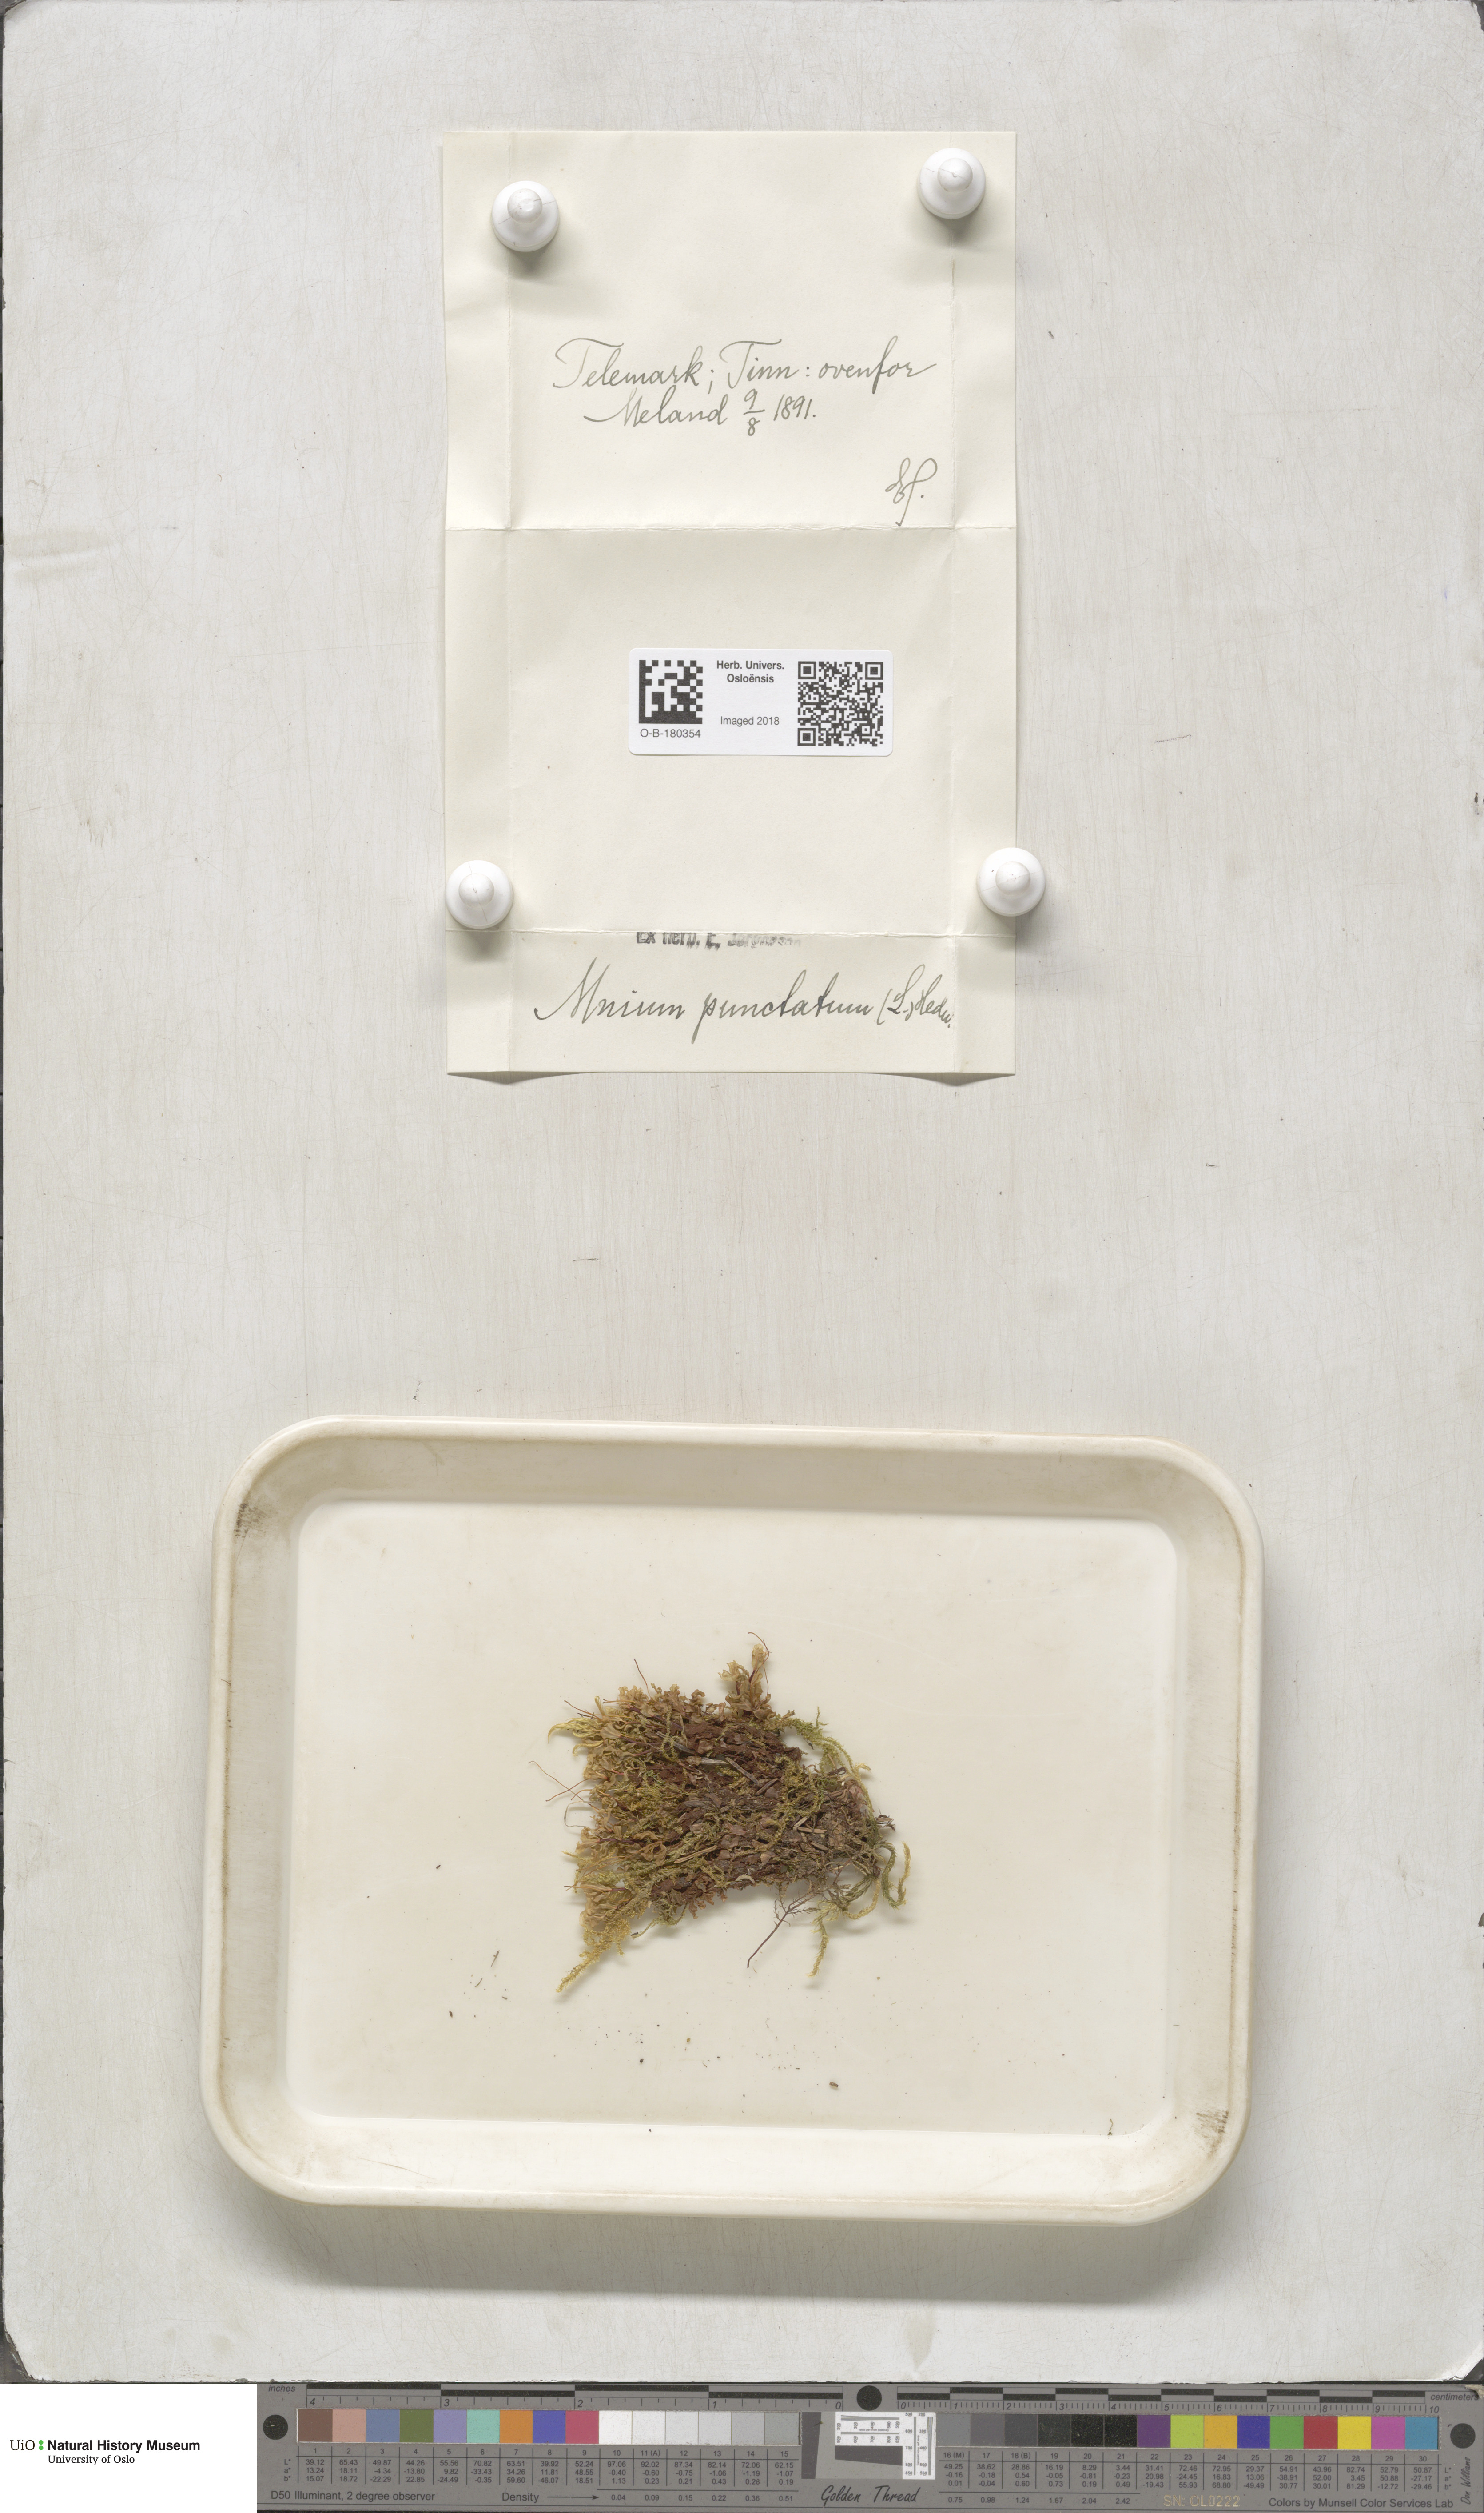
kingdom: Plantae
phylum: Bryophyta
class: Bryopsida
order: Bryales
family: Mniaceae
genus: Rhizomnium
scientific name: Rhizomnium punctatum
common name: Dotted leafy moss
